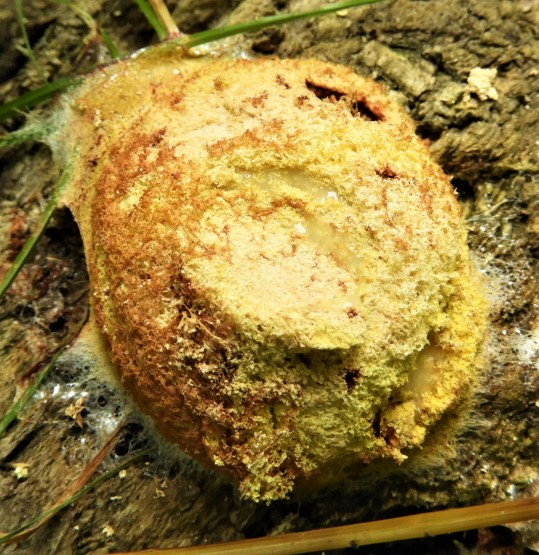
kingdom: Protozoa
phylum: Mycetozoa
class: Myxomycetes
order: Physarales
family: Physaraceae
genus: Fuligo
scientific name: Fuligo
